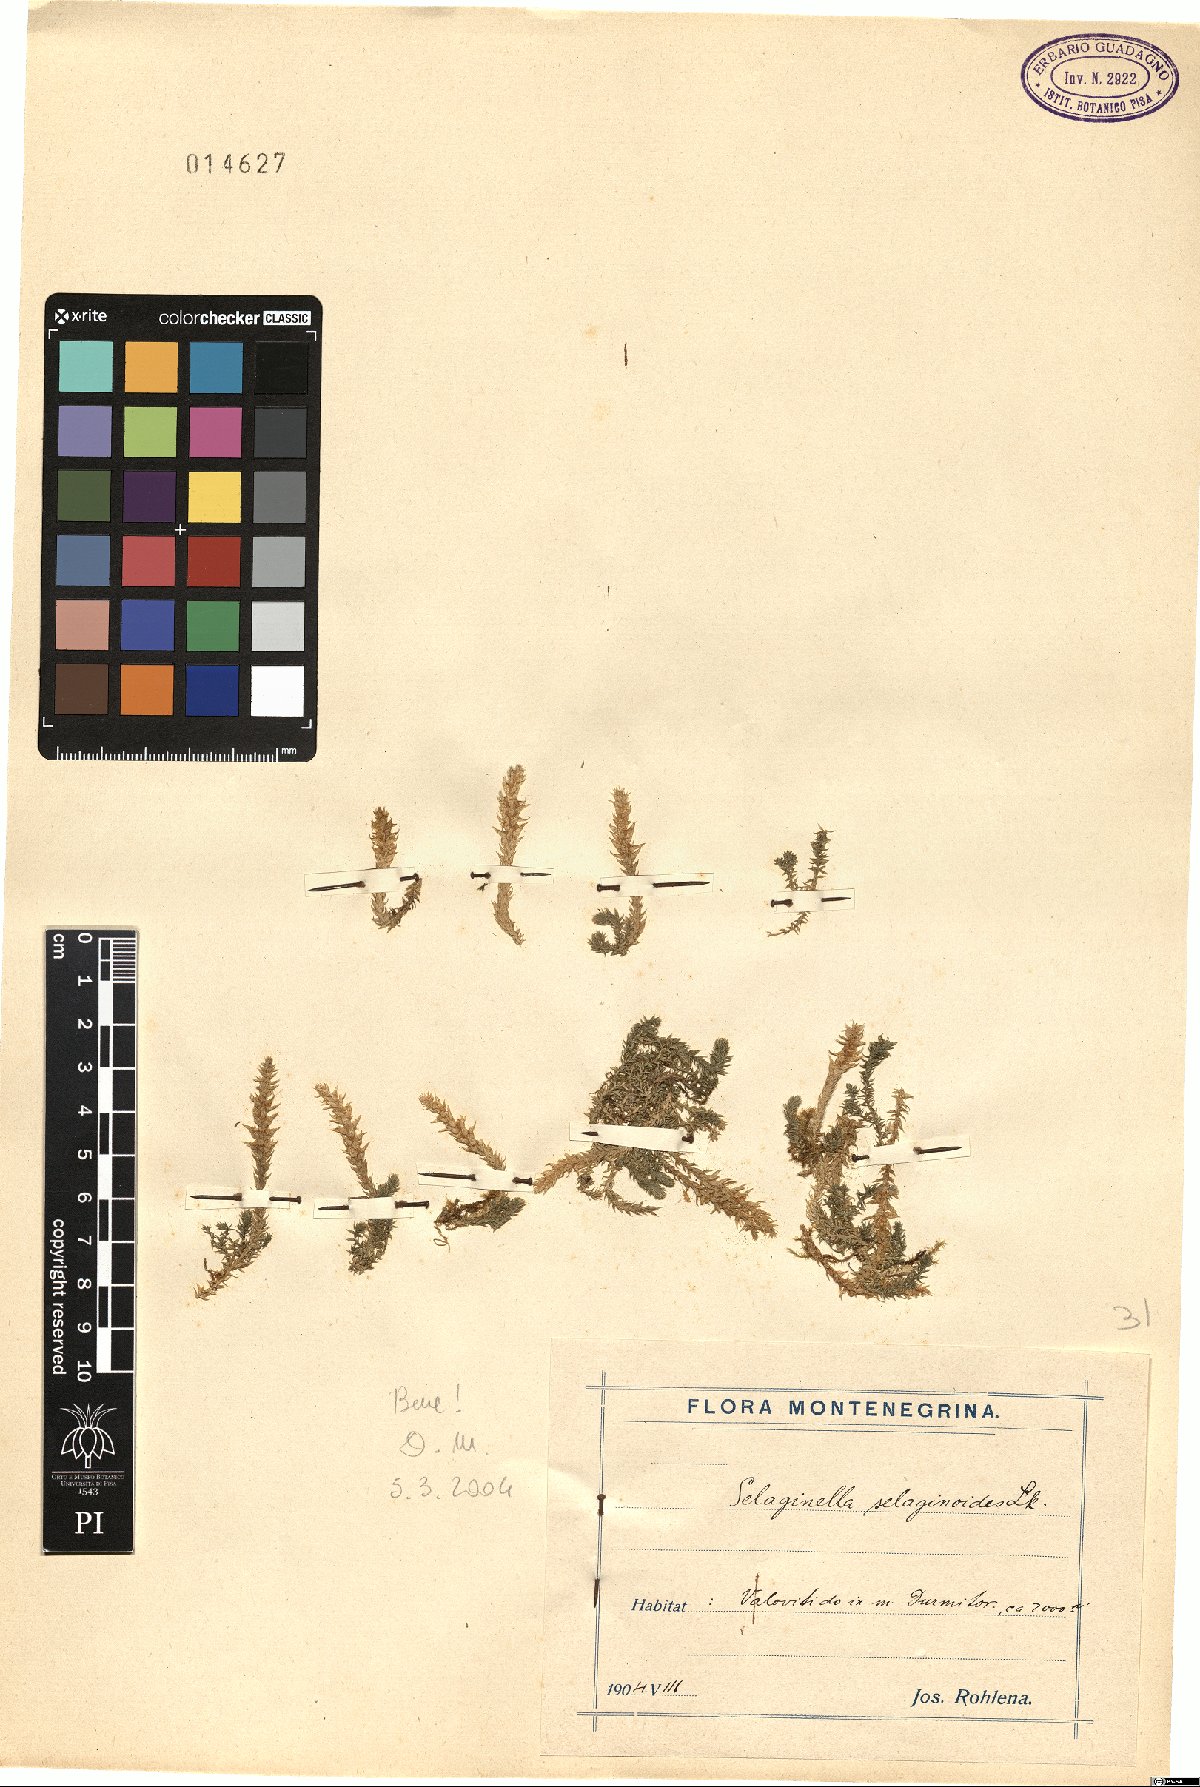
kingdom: Plantae
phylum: Tracheophyta
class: Lycopodiopsida
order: Selaginellales
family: Selaginellaceae
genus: Selaginella
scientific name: Selaginella selaginoides
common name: Prickly mountain-moss
